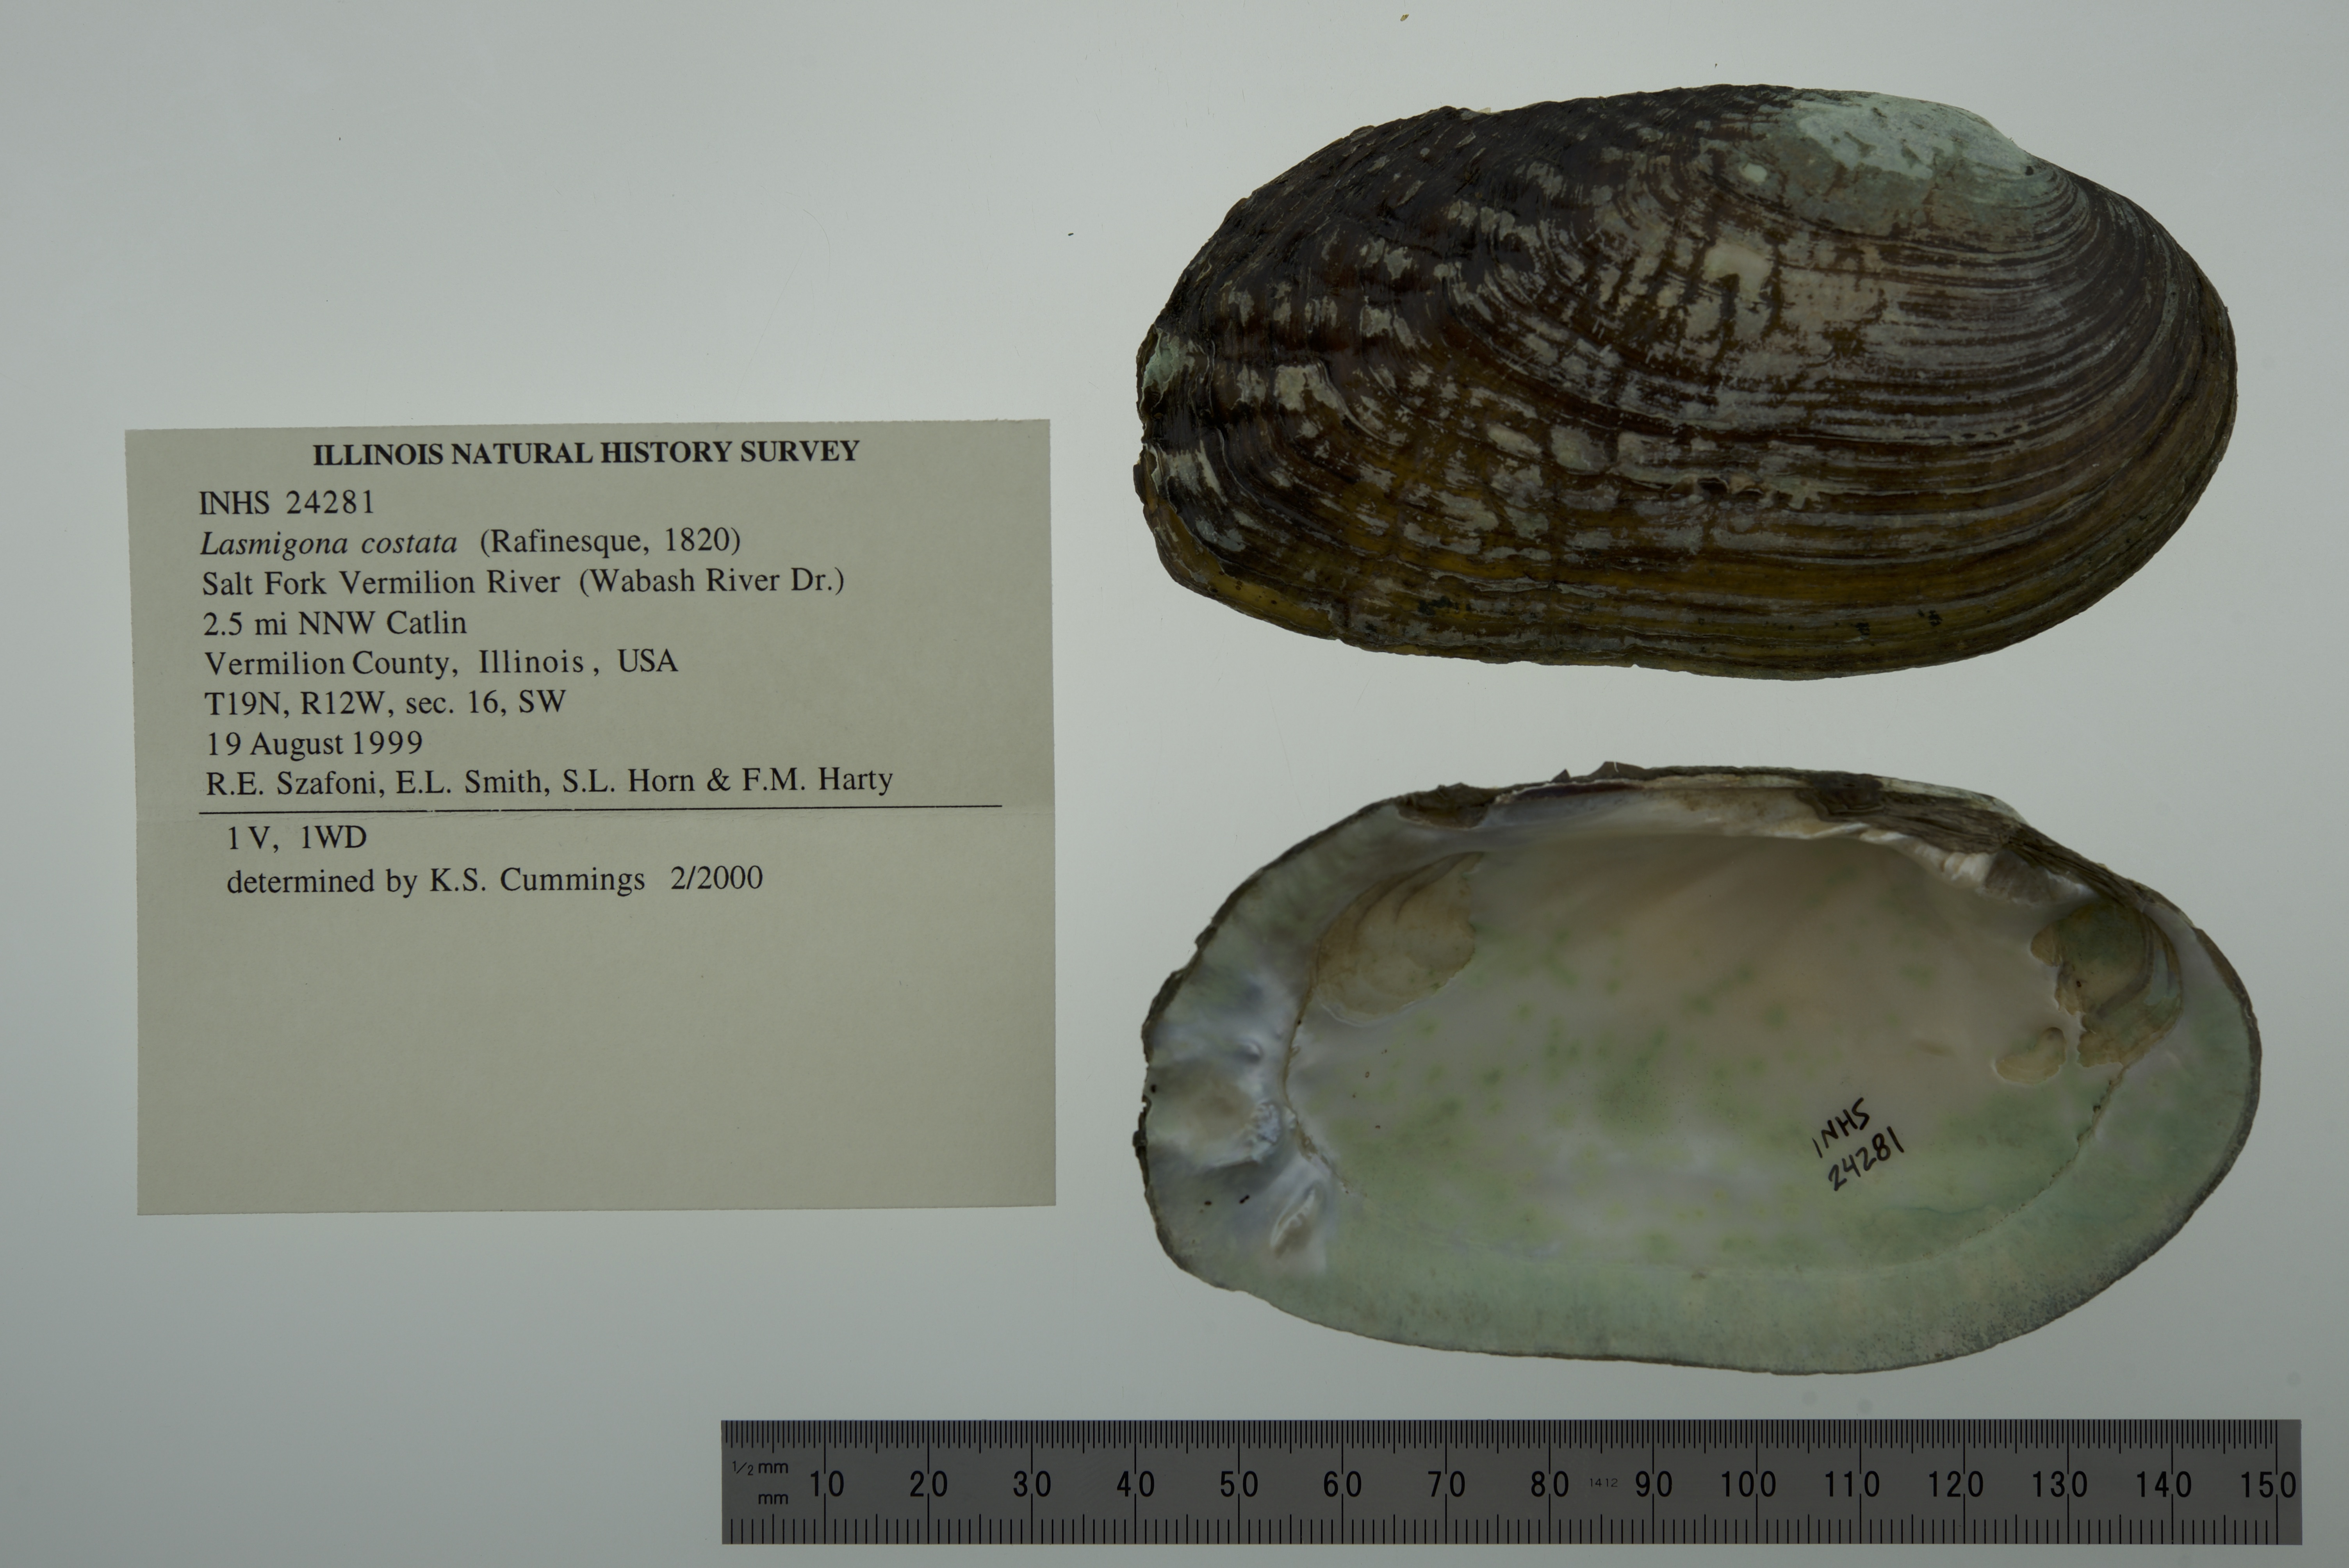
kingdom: Animalia
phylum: Mollusca
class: Bivalvia
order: Unionida
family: Unionidae
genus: Lasmigona
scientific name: Lasmigona costata
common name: Flutedshell
